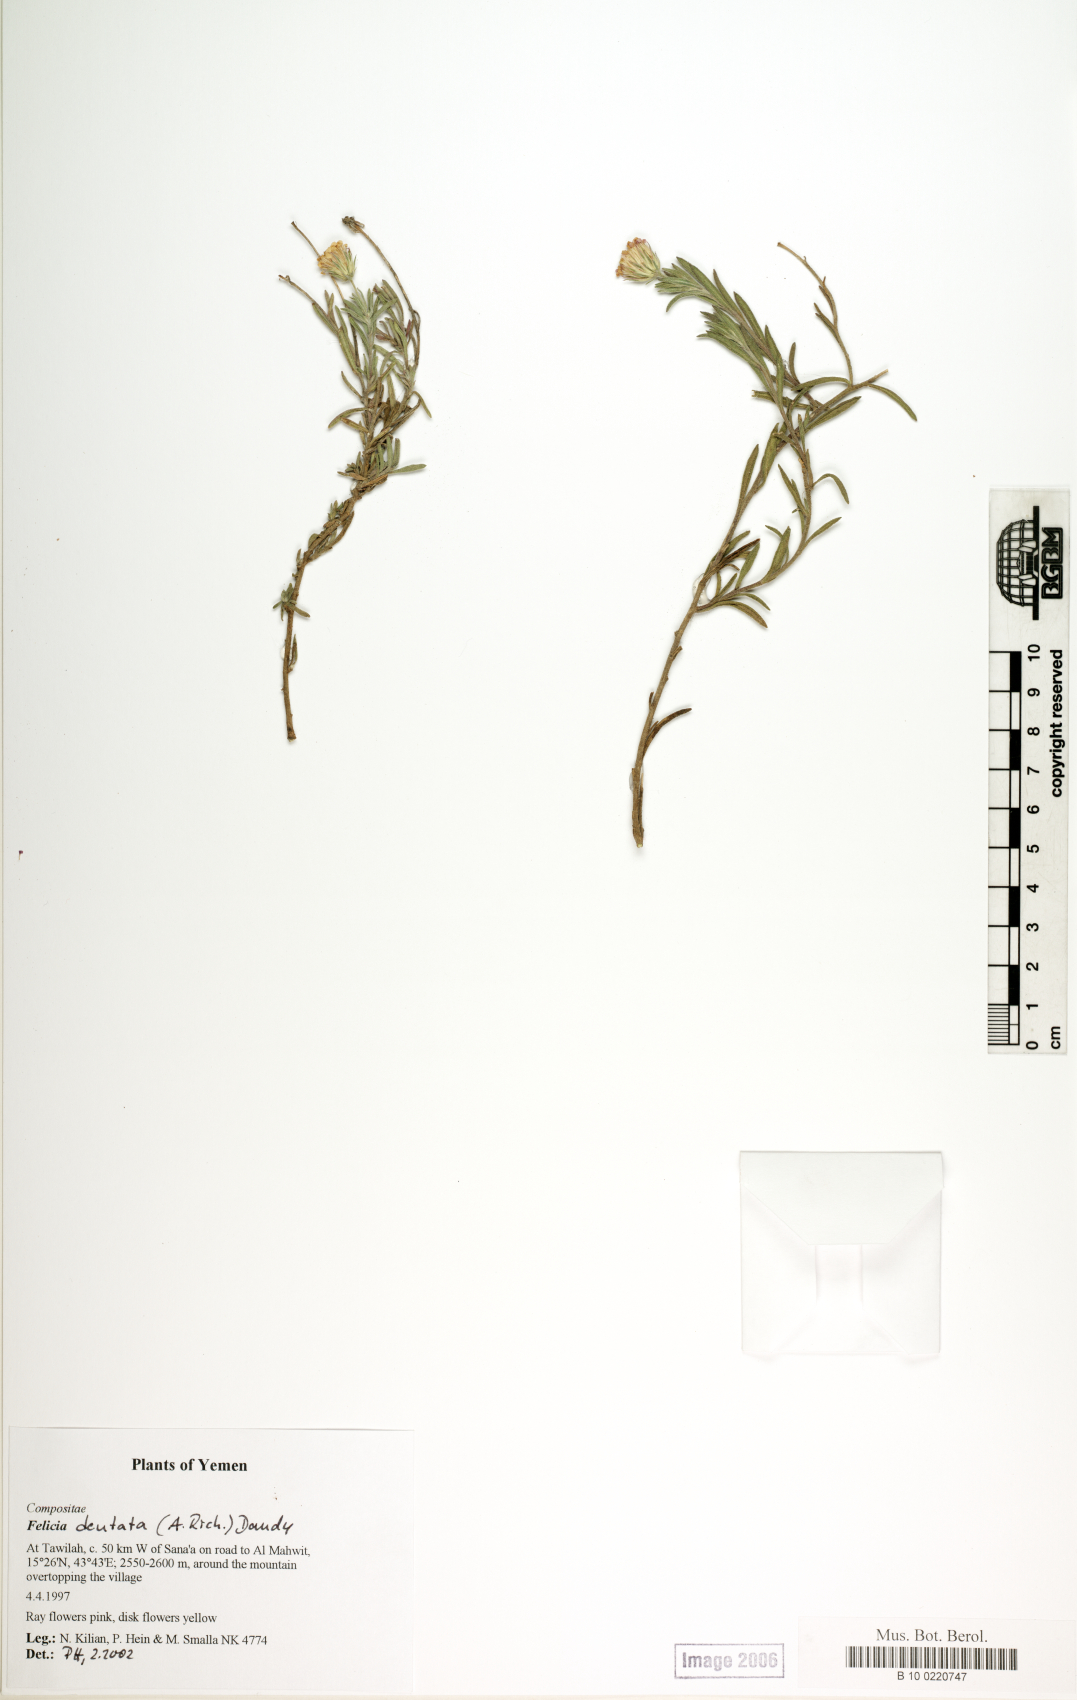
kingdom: Plantae
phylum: Tracheophyta
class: Magnoliopsida
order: Asterales
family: Asteraceae
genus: Felicia
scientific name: Felicia dentata
